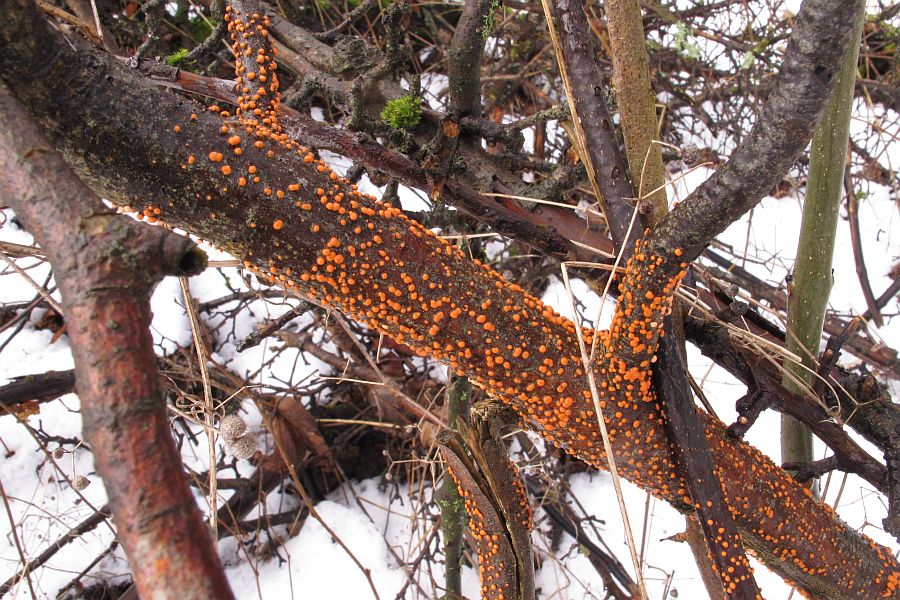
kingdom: Fungi
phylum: Ascomycota
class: Sordariomycetes
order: Hypocreales
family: Nectriaceae
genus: Nectria
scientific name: Nectria cinnabarina
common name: almindelig cinnobersvamp
